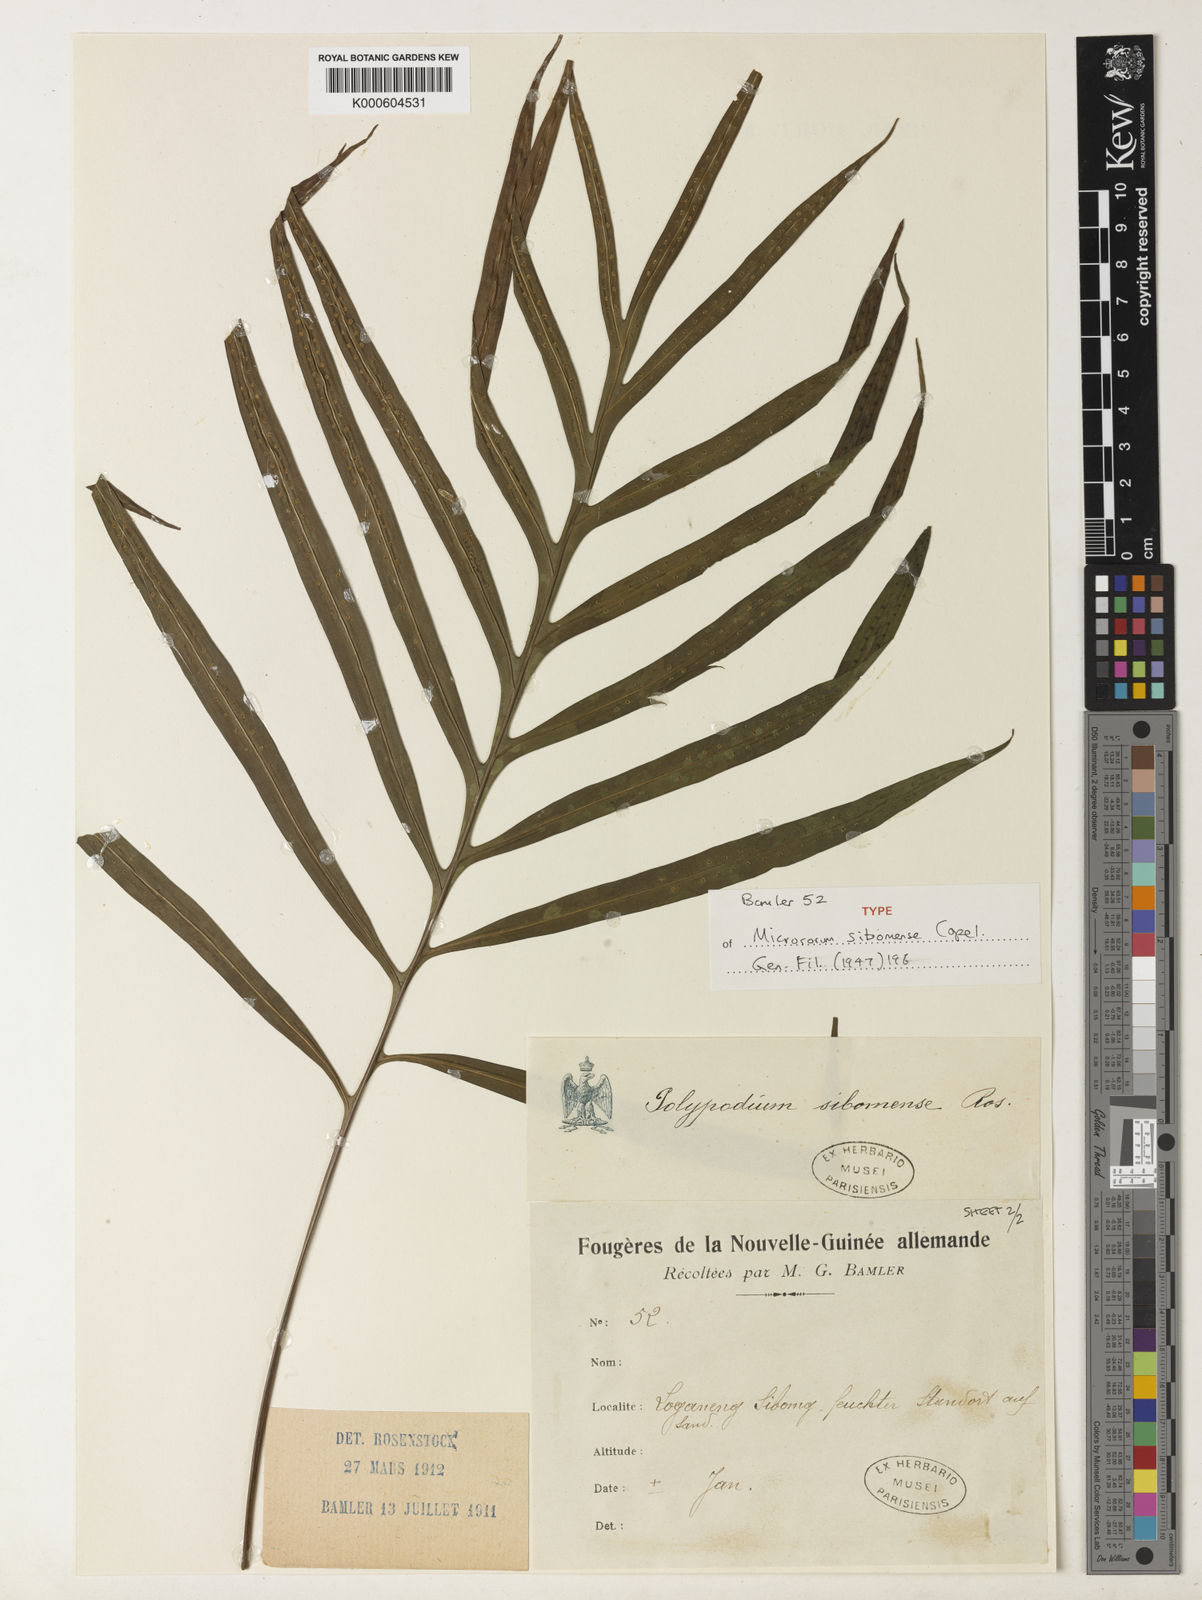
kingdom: Plantae
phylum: Tracheophyta
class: Polypodiopsida
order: Polypodiales
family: Polypodiaceae
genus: Microsorum
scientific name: Microsorum sibomense
